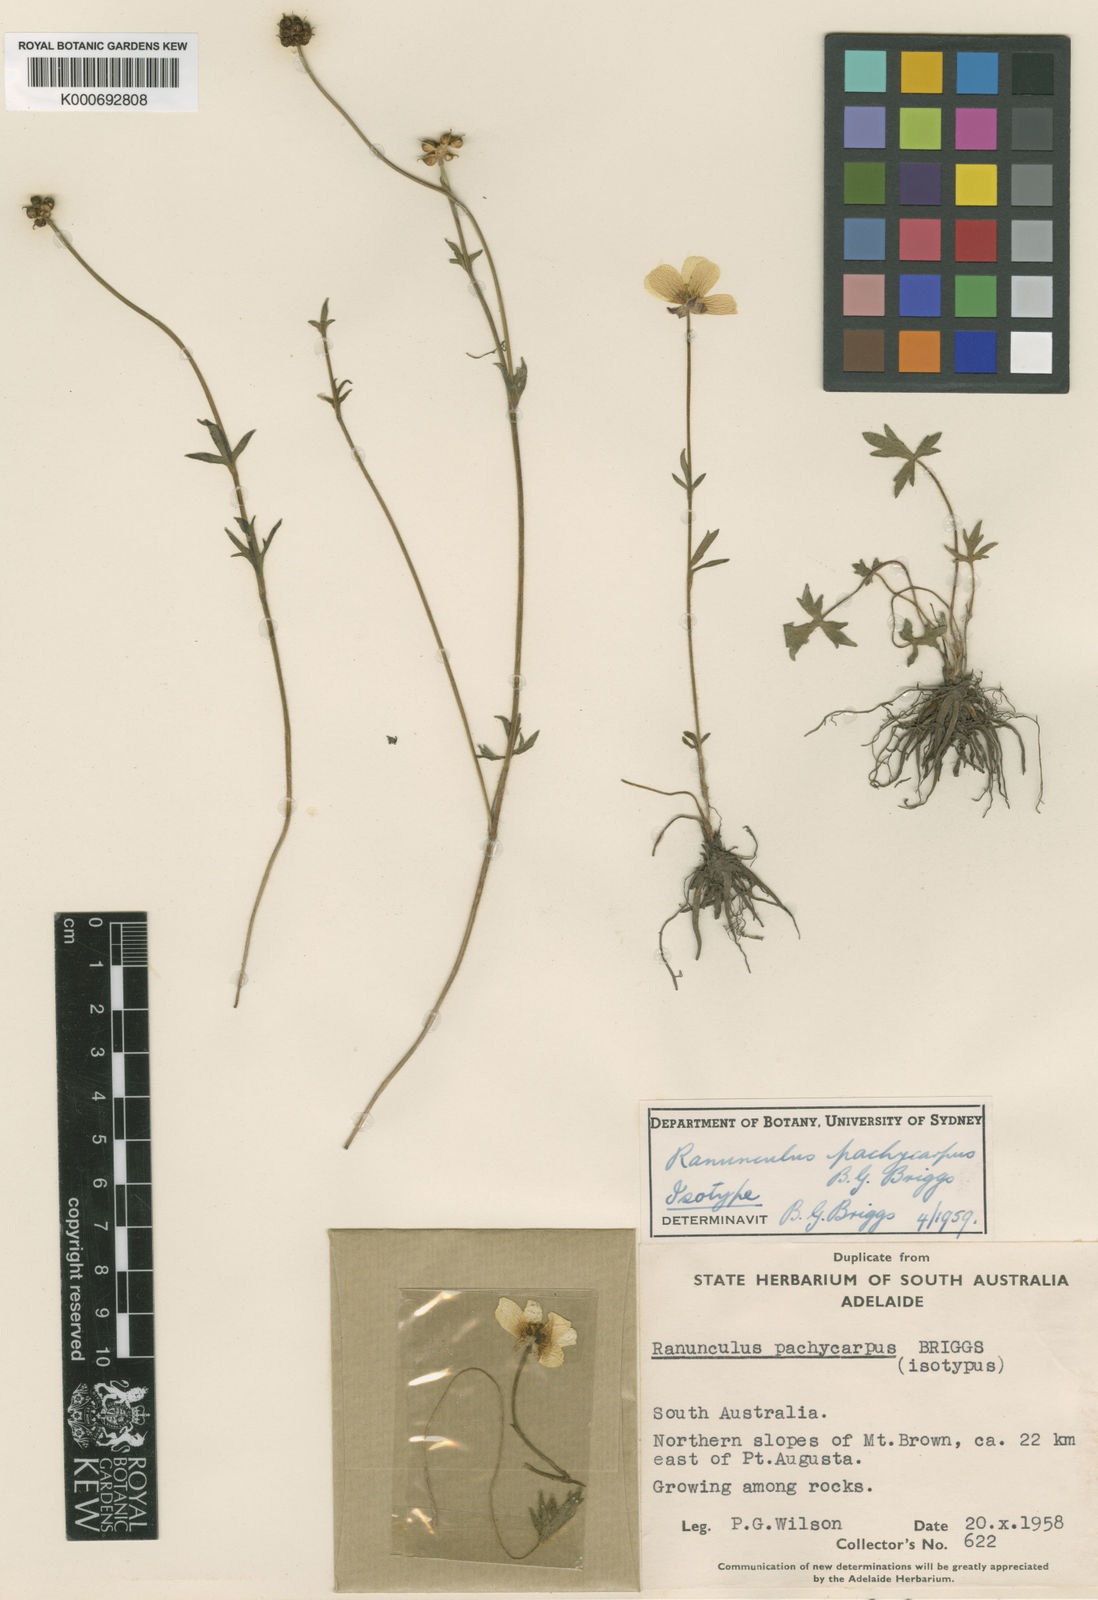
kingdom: Plantae
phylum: Tracheophyta
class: Magnoliopsida
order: Ranunculales
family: Ranunculaceae
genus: Ranunculus
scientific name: Ranunculus pachycarpus
